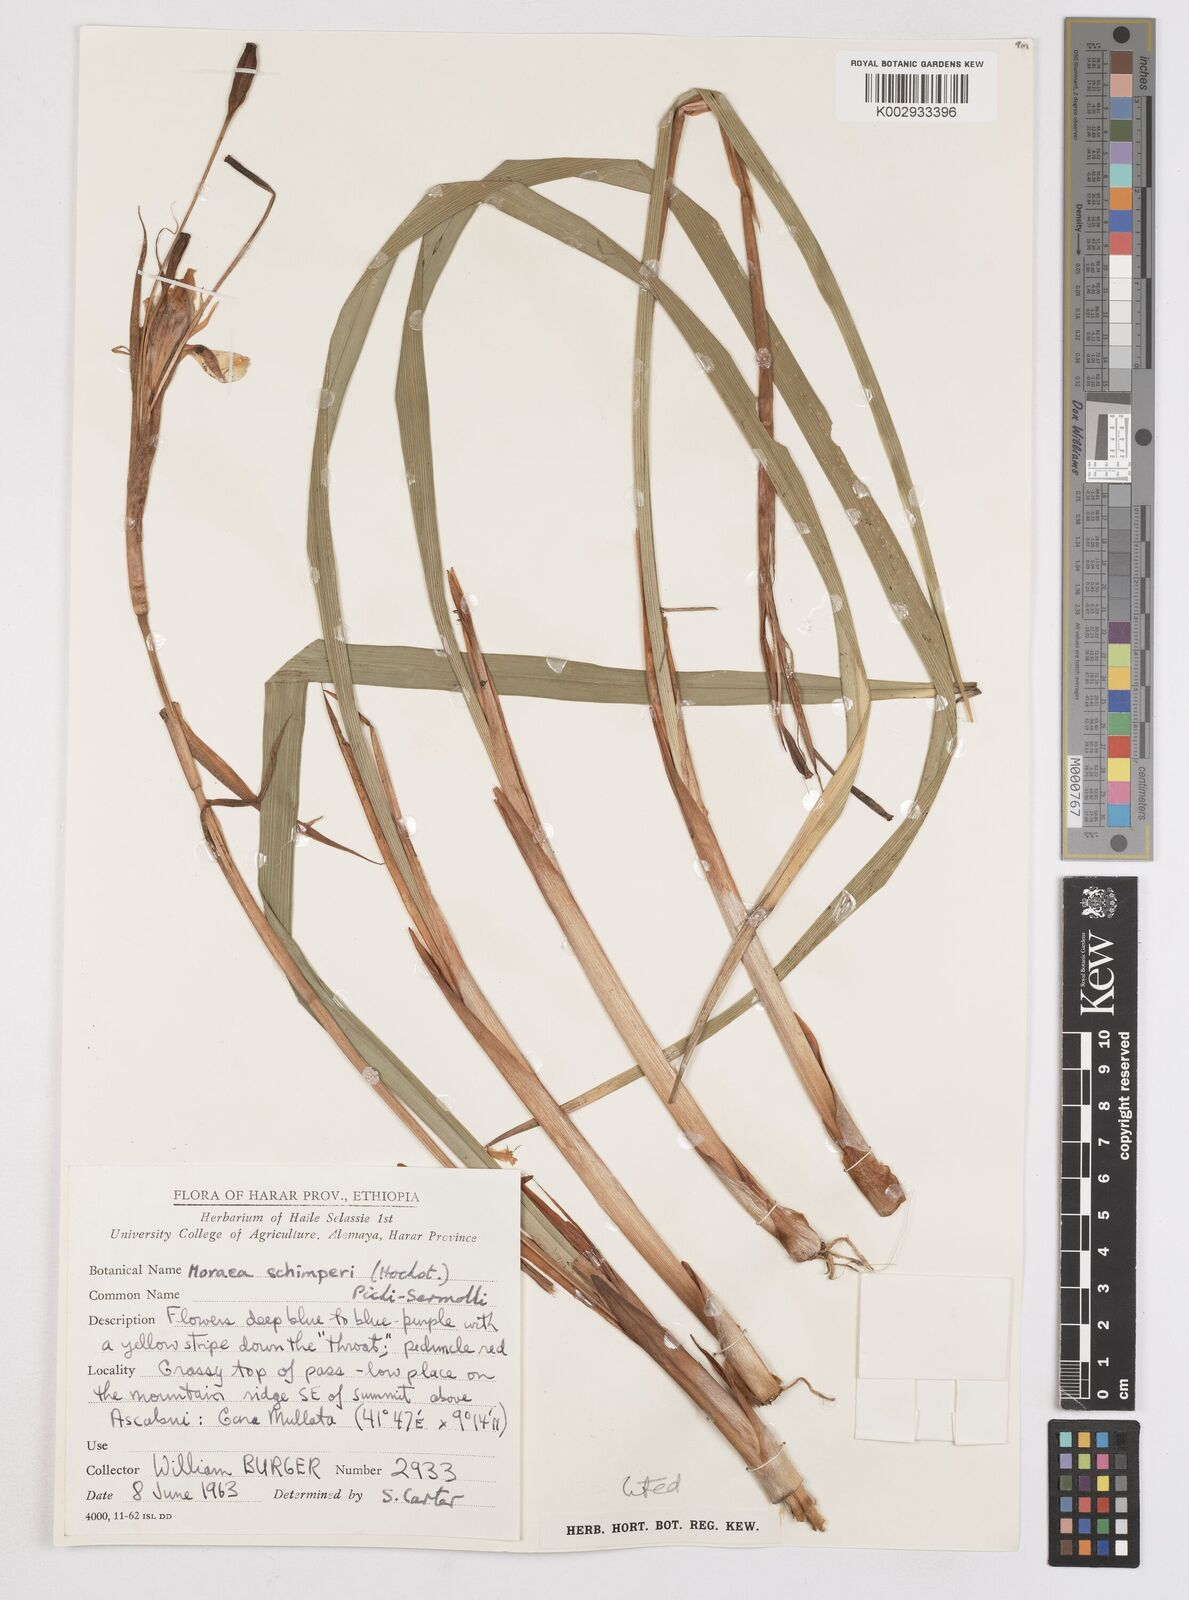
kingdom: Plantae
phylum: Tracheophyta
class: Liliopsida
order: Asparagales
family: Iridaceae
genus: Moraea
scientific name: Moraea schimperi
